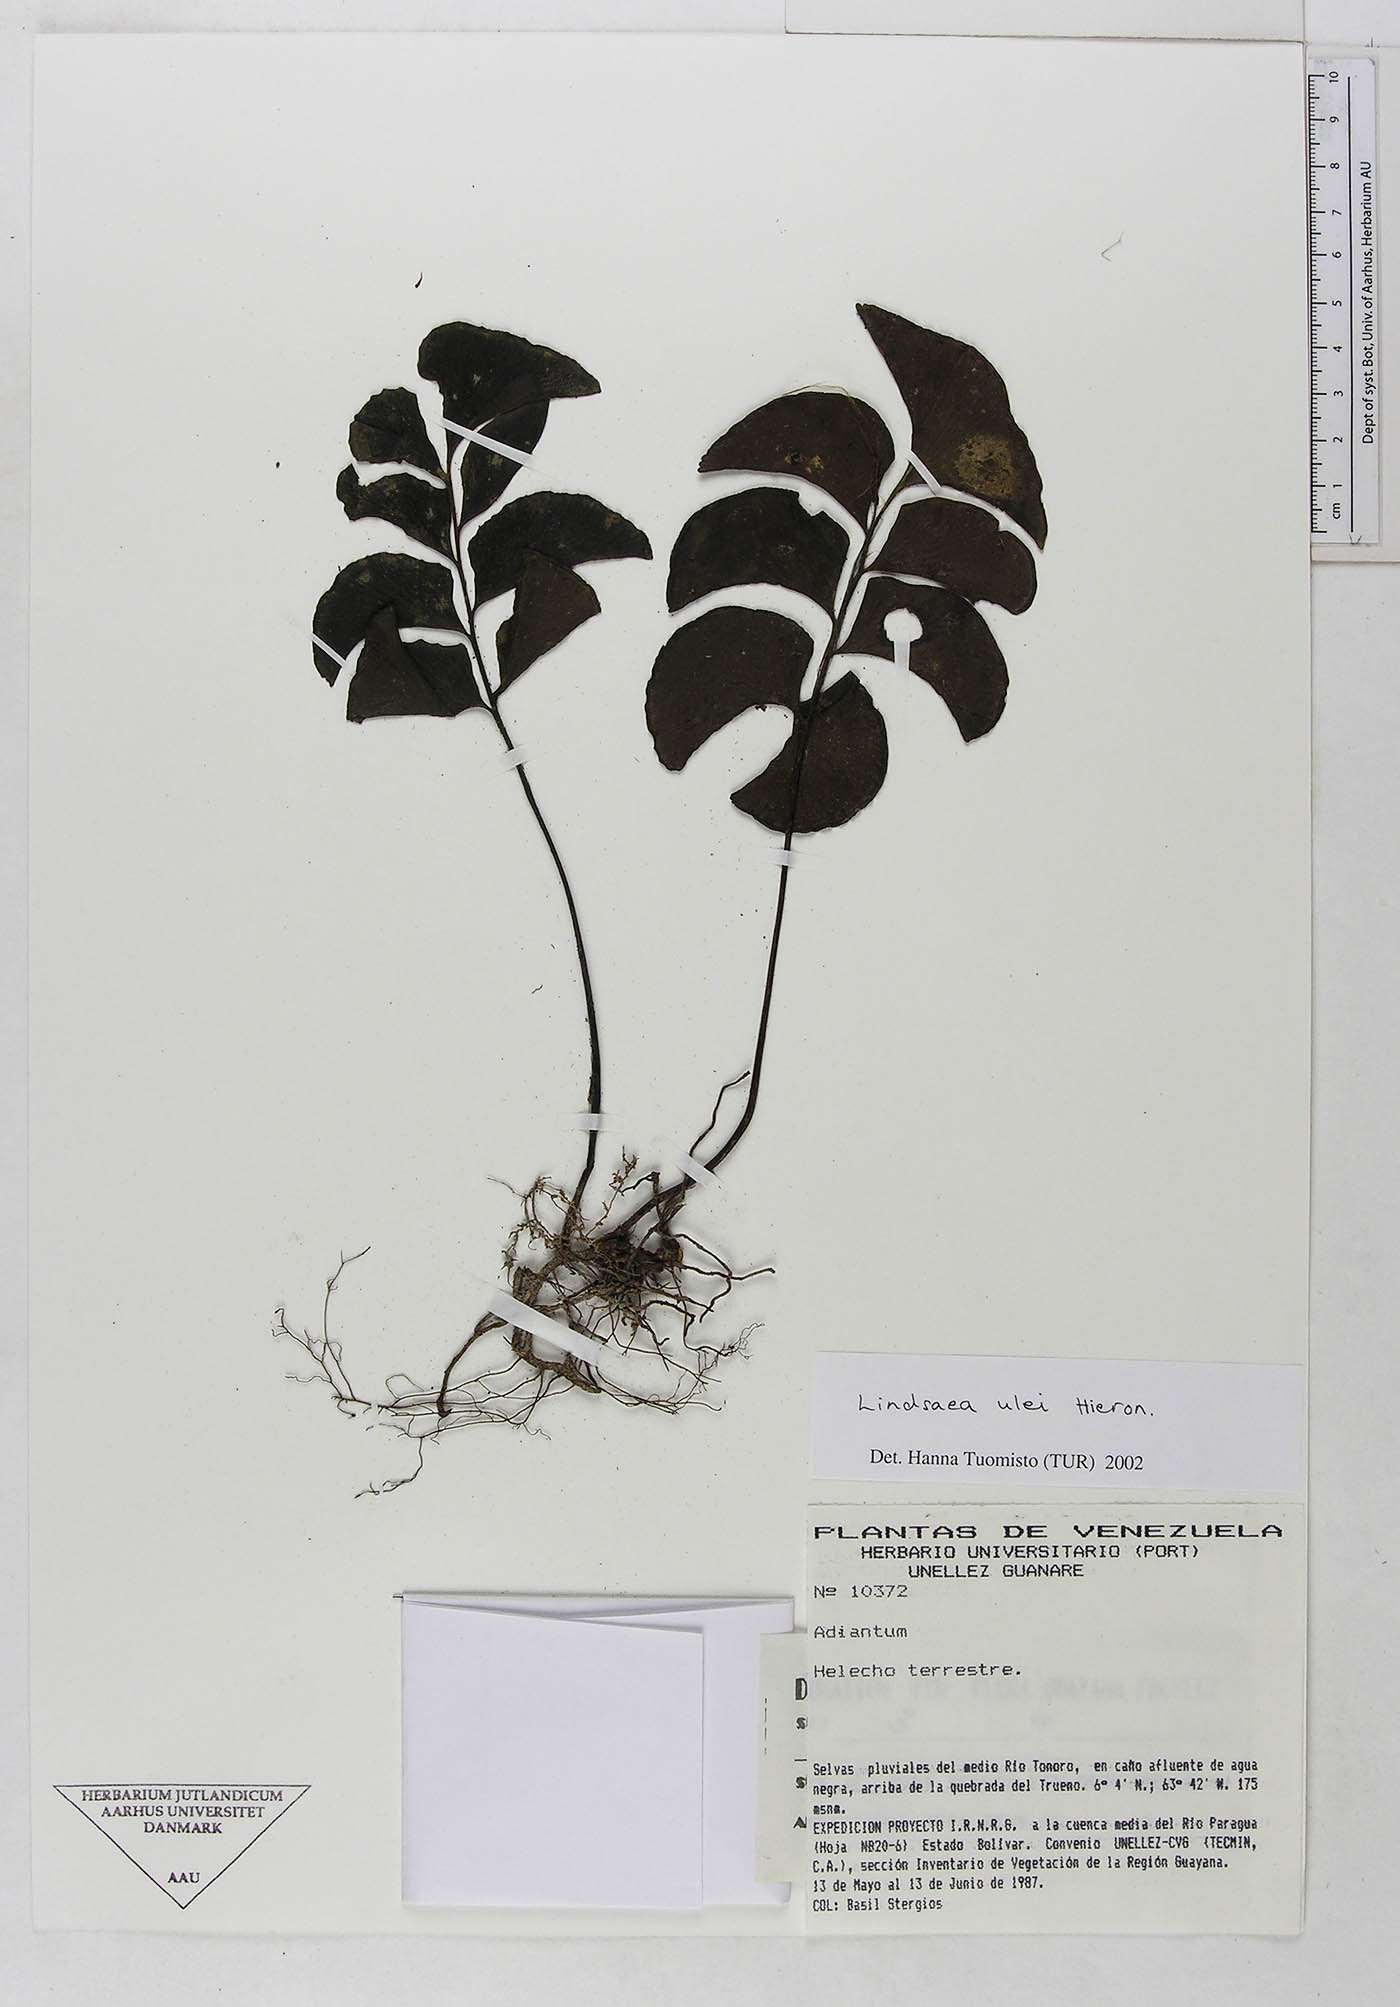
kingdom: Plantae
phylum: Tracheophyta
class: Polypodiopsida
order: Polypodiales
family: Lindsaeaceae
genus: Lindsaea
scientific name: Lindsaea ulei
